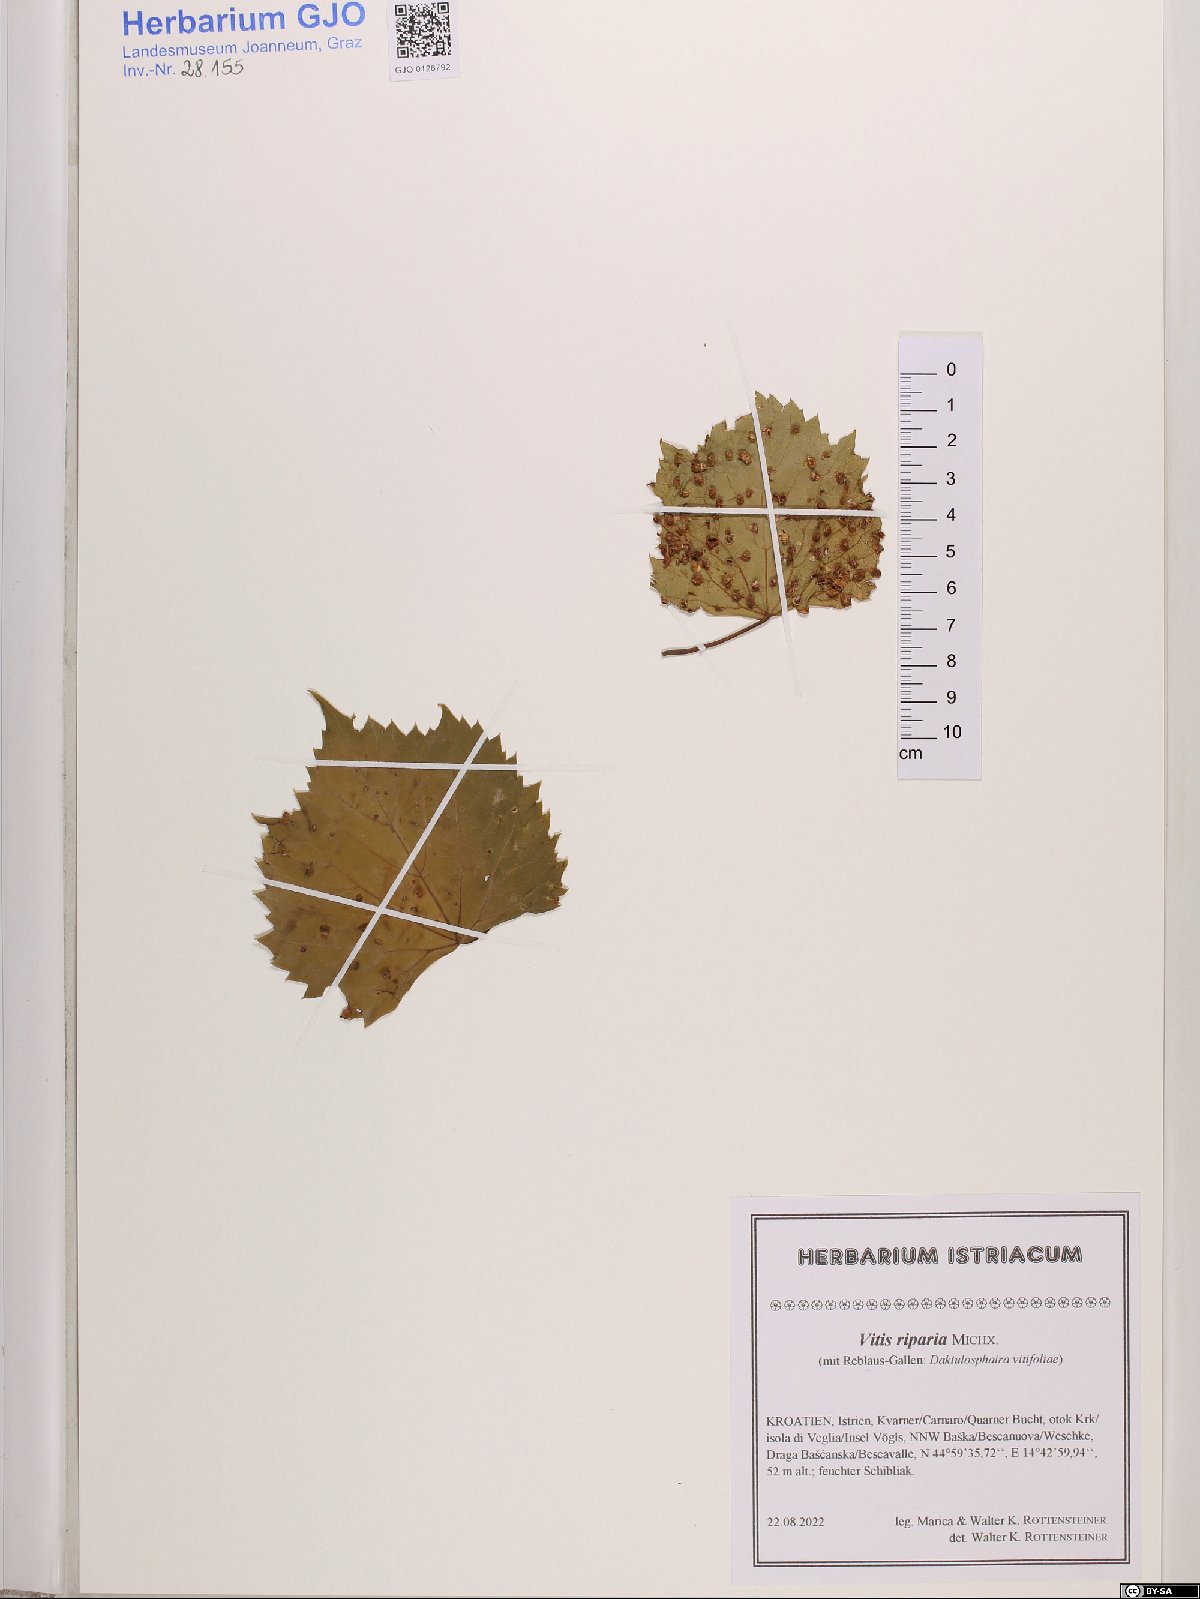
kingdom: Plantae
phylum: Tracheophyta
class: Magnoliopsida
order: Vitales
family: Vitaceae
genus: Vitis
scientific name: Vitis riparia
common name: Frost grape
